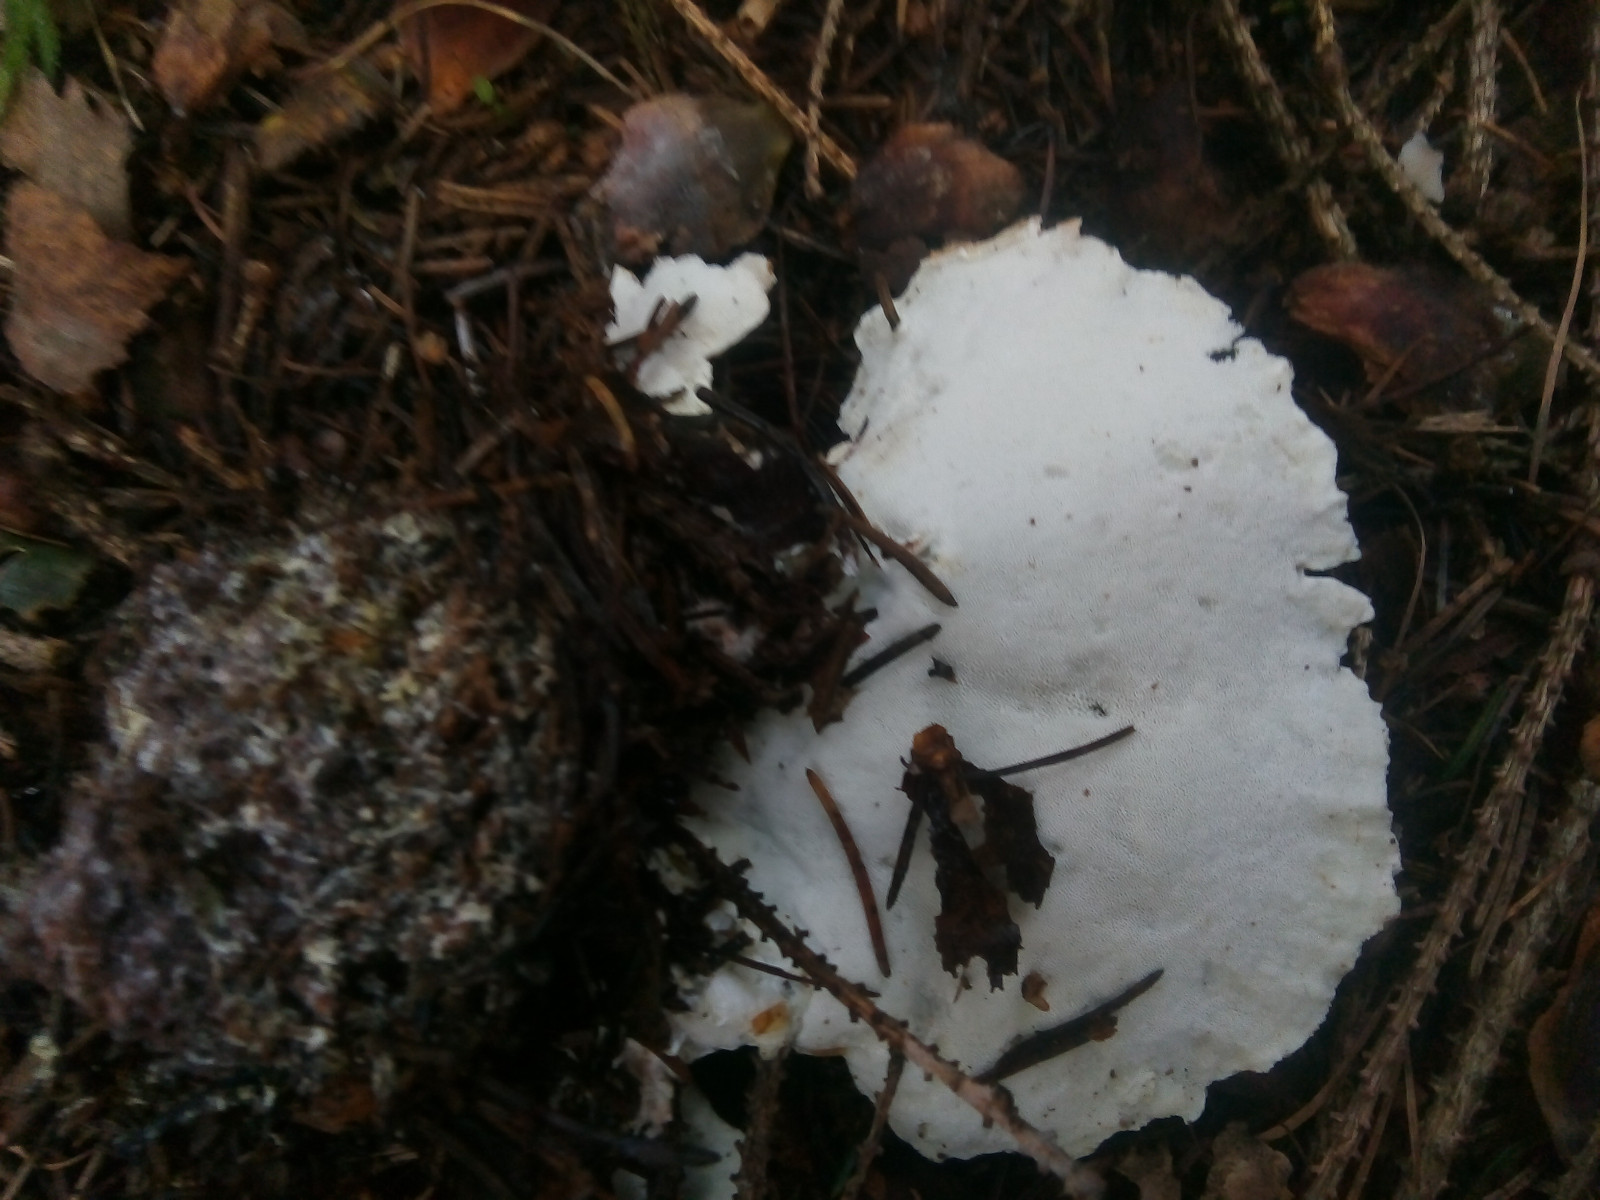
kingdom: Fungi
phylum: Basidiomycota
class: Agaricomycetes
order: Polyporales
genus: Calcipostia
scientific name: Calcipostia guttulata
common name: dråbe-kødporesvamp
